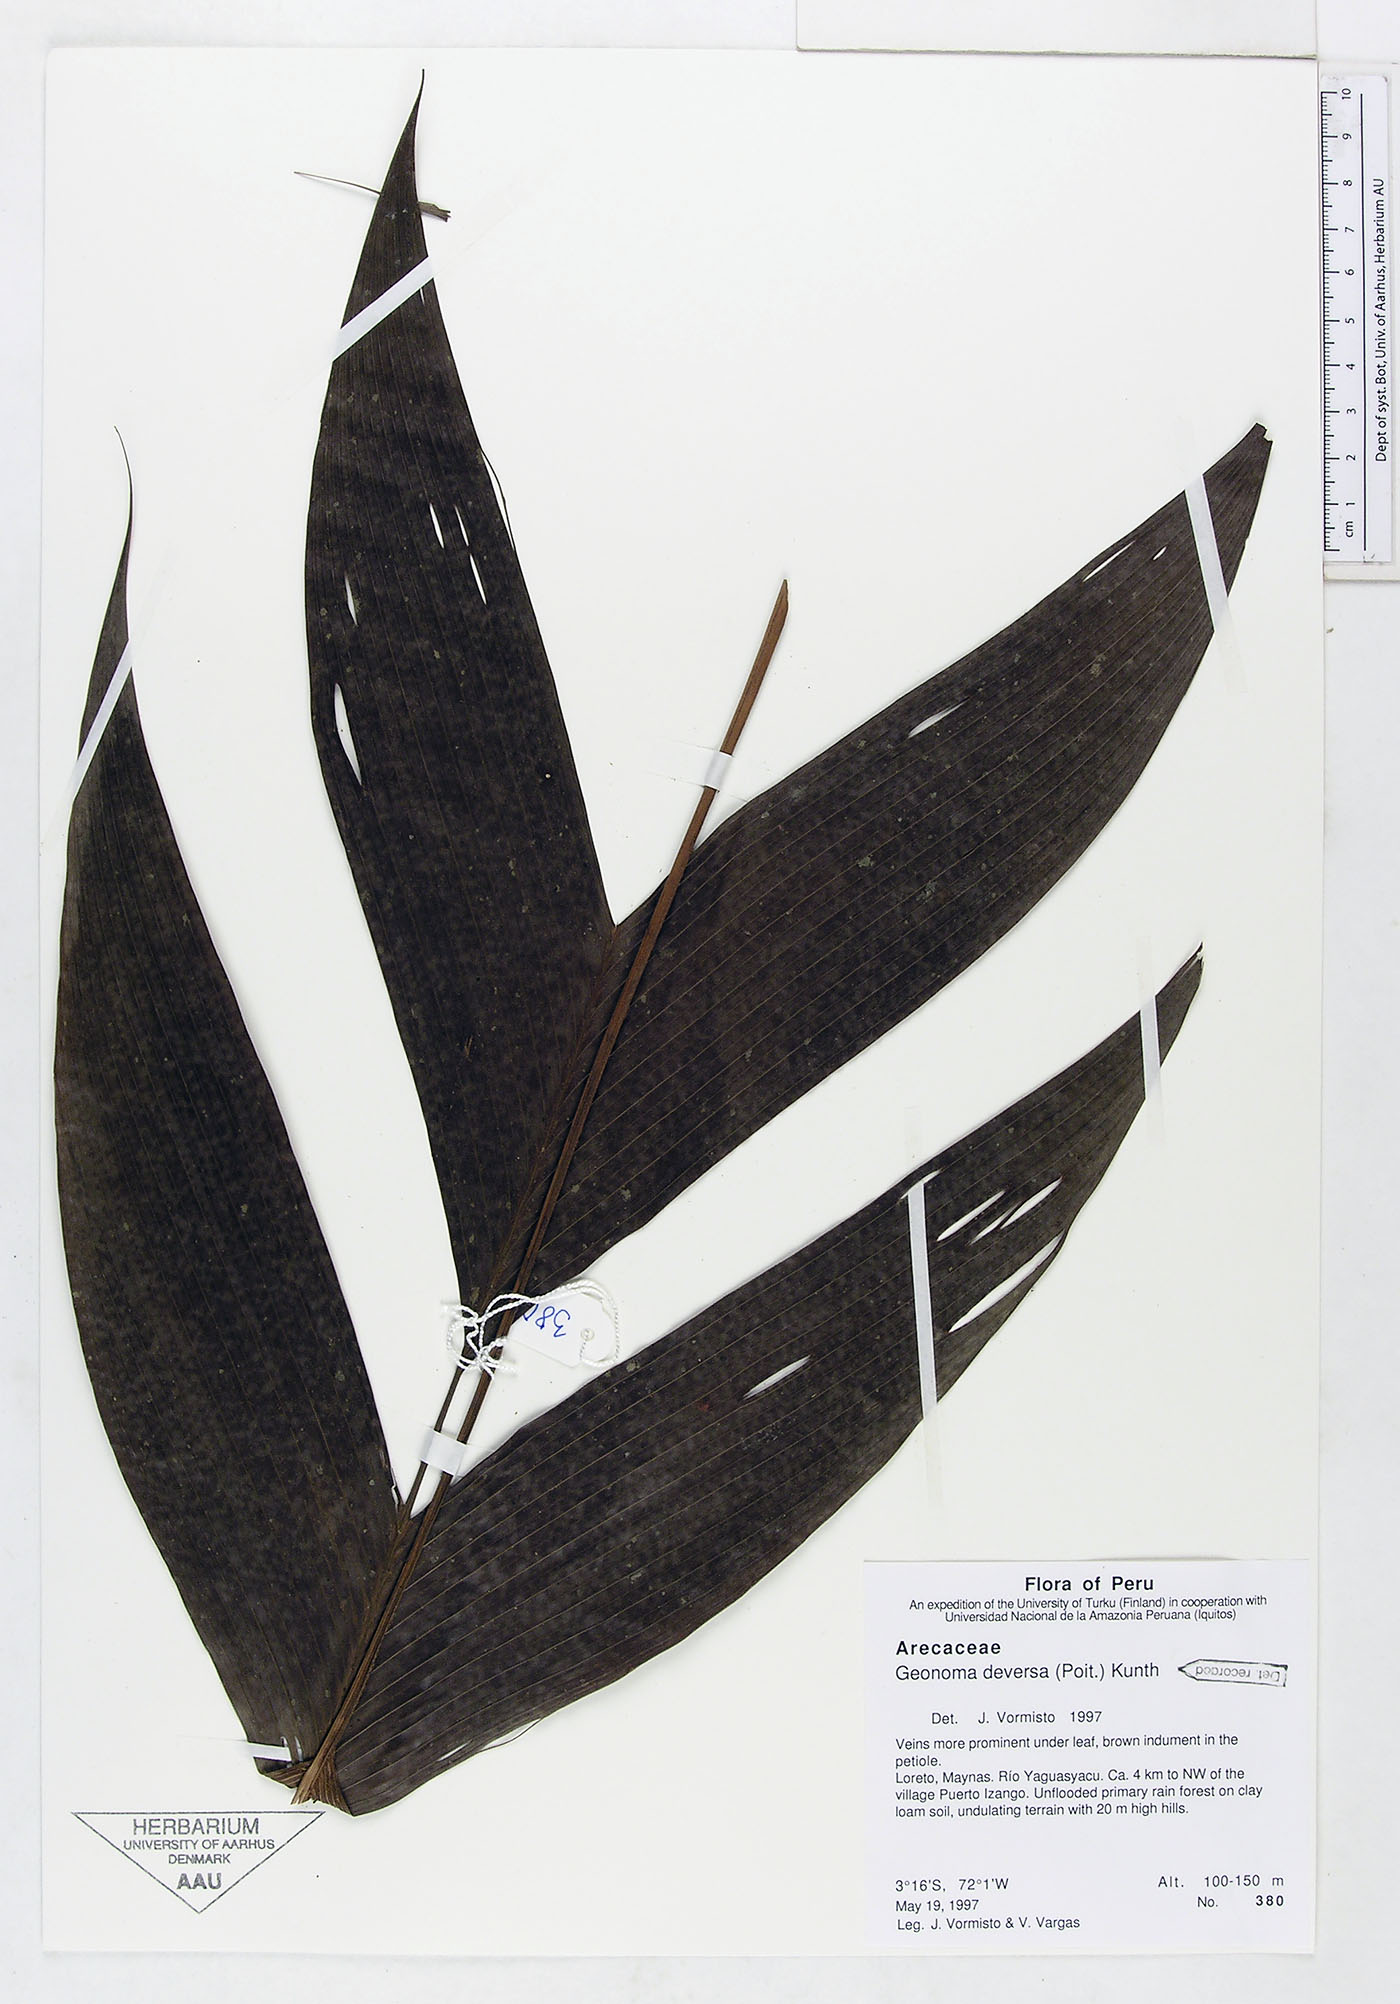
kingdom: Plantae
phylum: Tracheophyta
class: Liliopsida
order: Arecales
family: Arecaceae
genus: Geonoma
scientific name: Geonoma deversa
